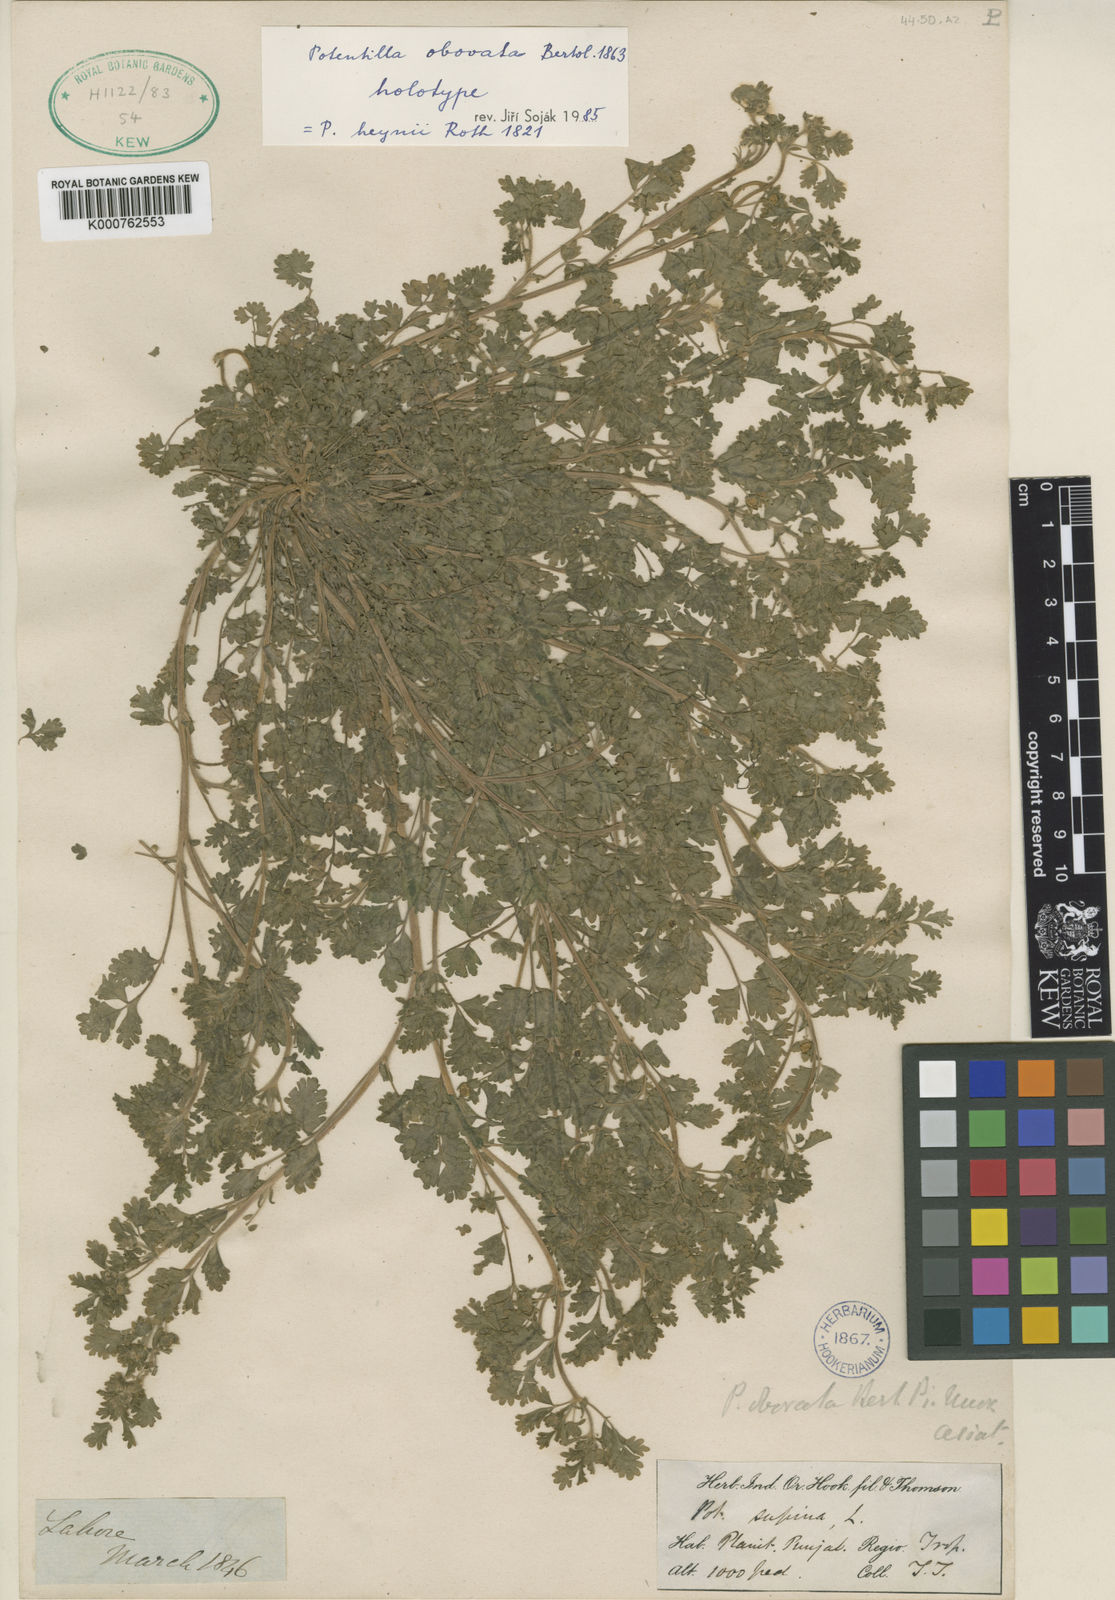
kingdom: Plantae
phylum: Tracheophyta
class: Magnoliopsida
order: Rosales
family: Rosaceae
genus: Potentilla
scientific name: Potentilla heynei
